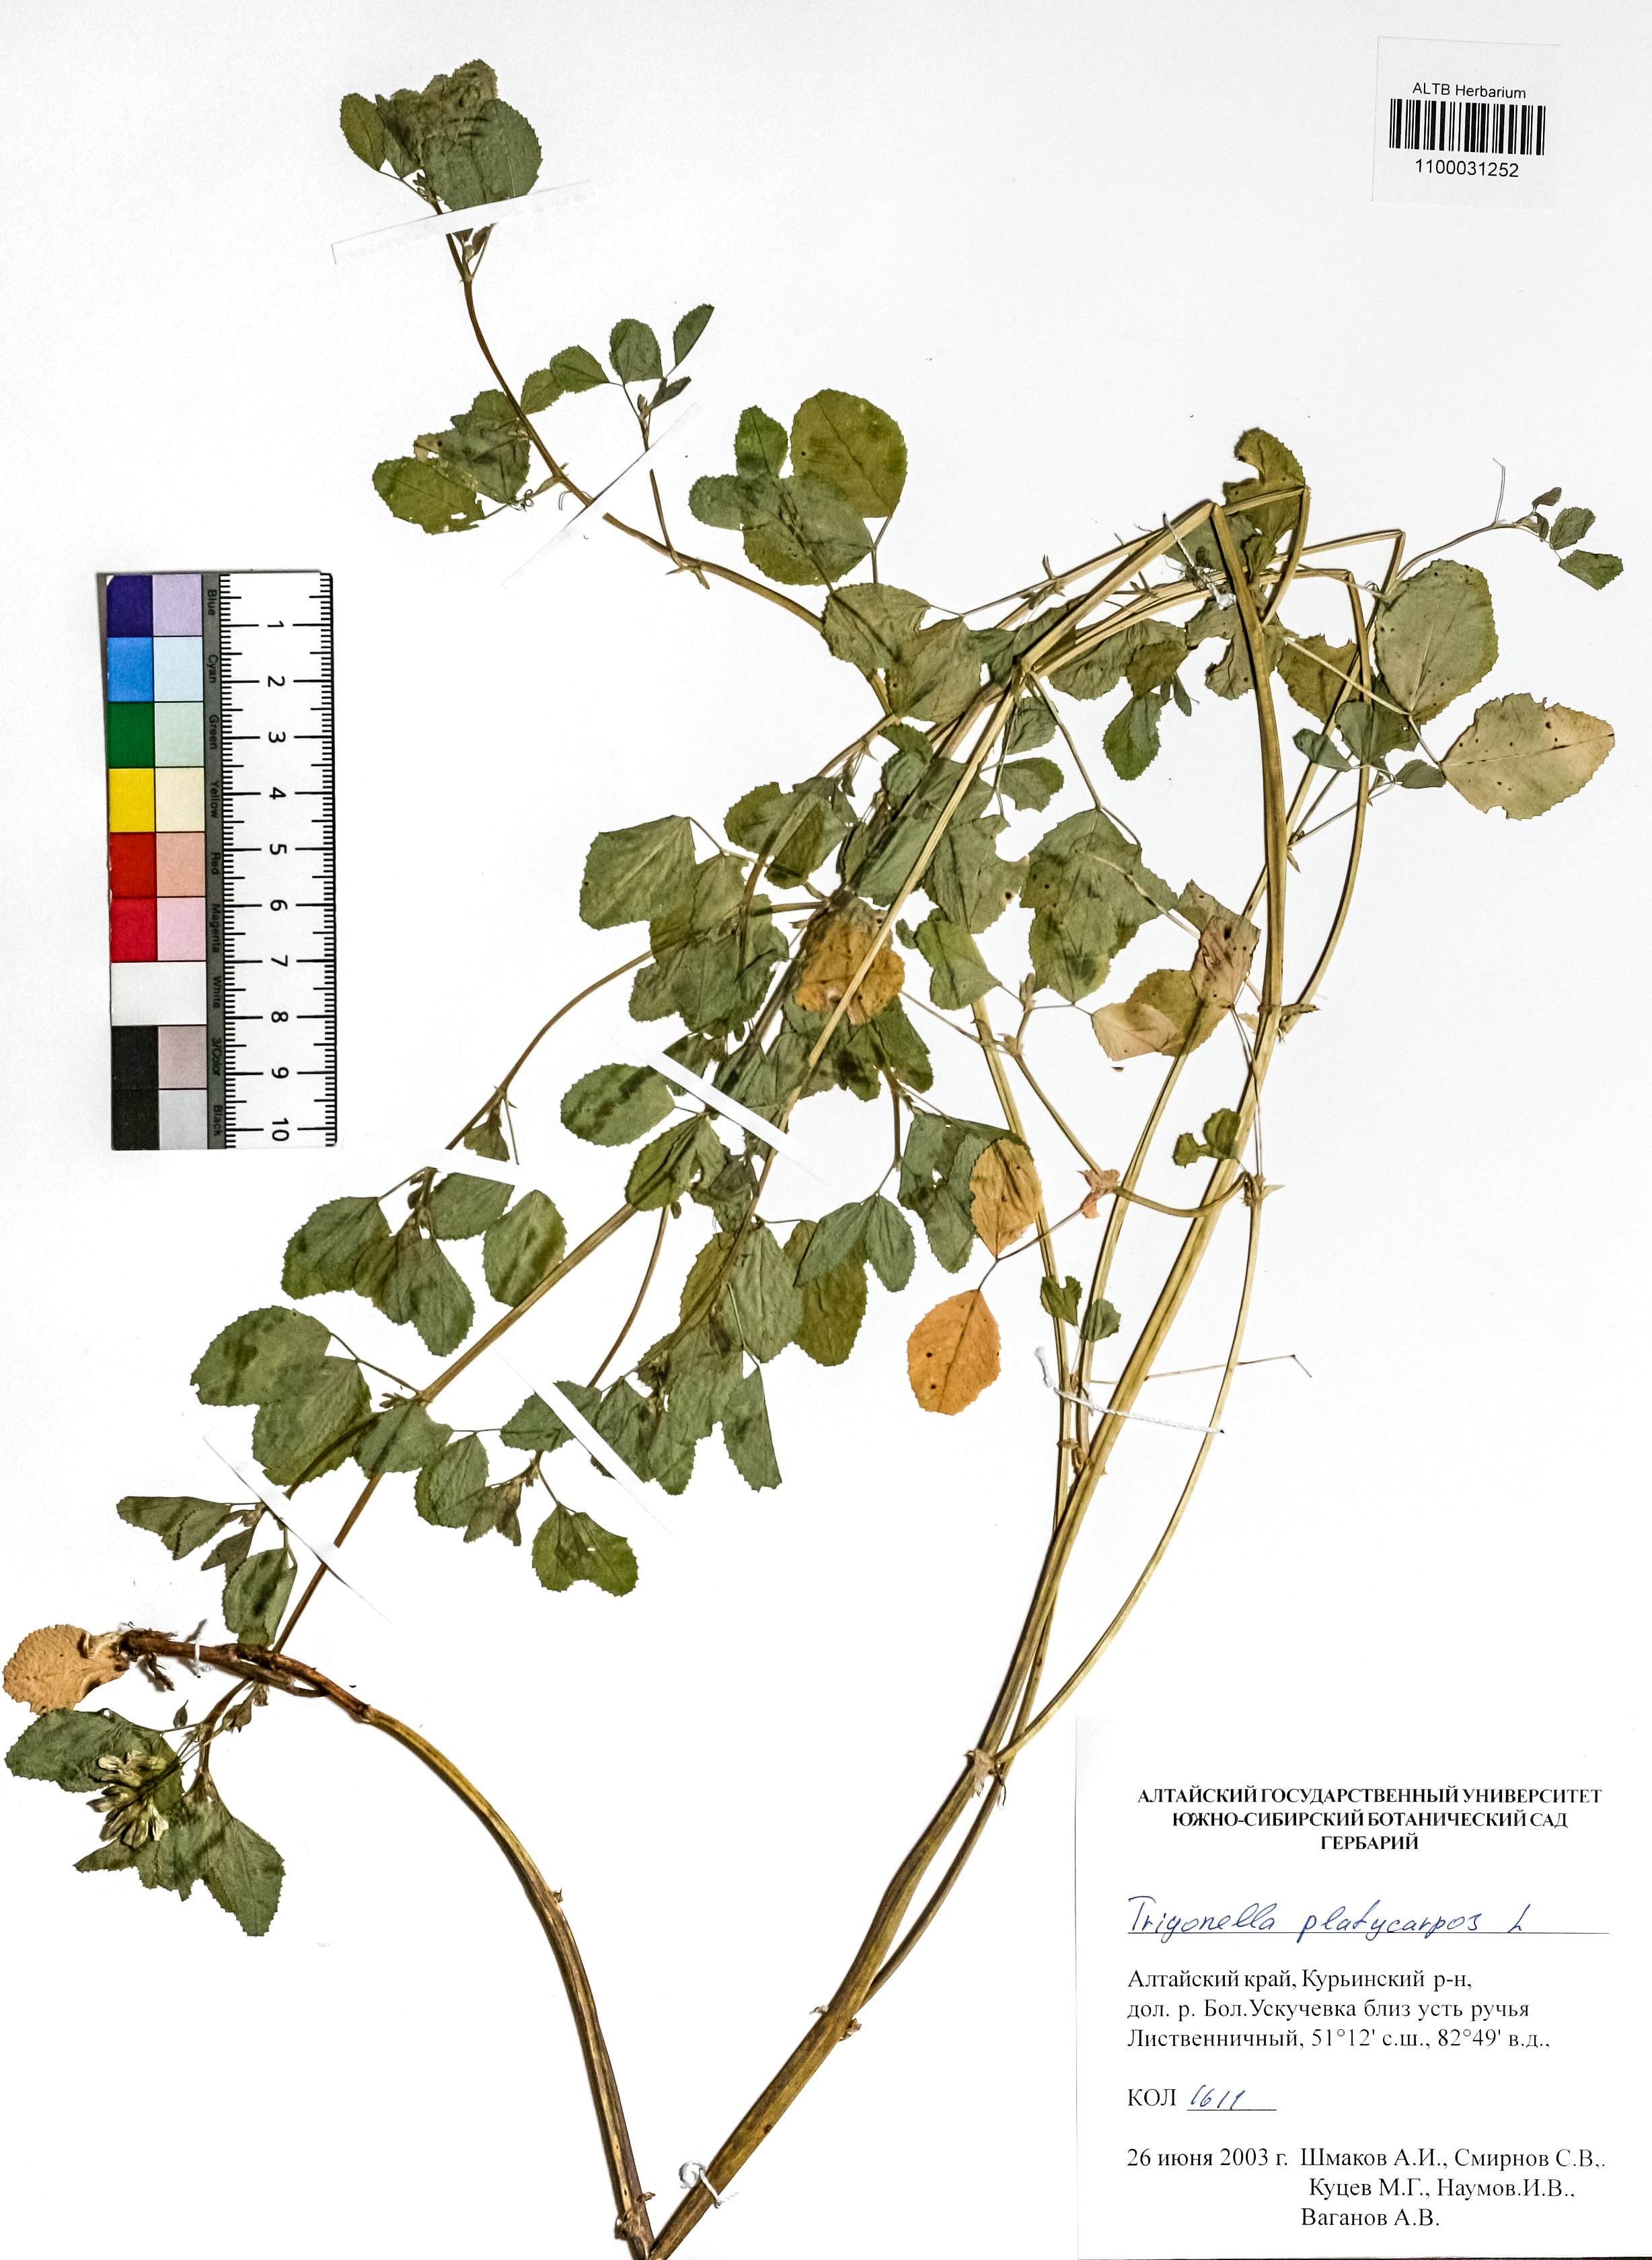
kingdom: Plantae
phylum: Tracheophyta
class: Magnoliopsida
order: Fabales
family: Fabaceae
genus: Medicago
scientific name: Medicago platycarpos
